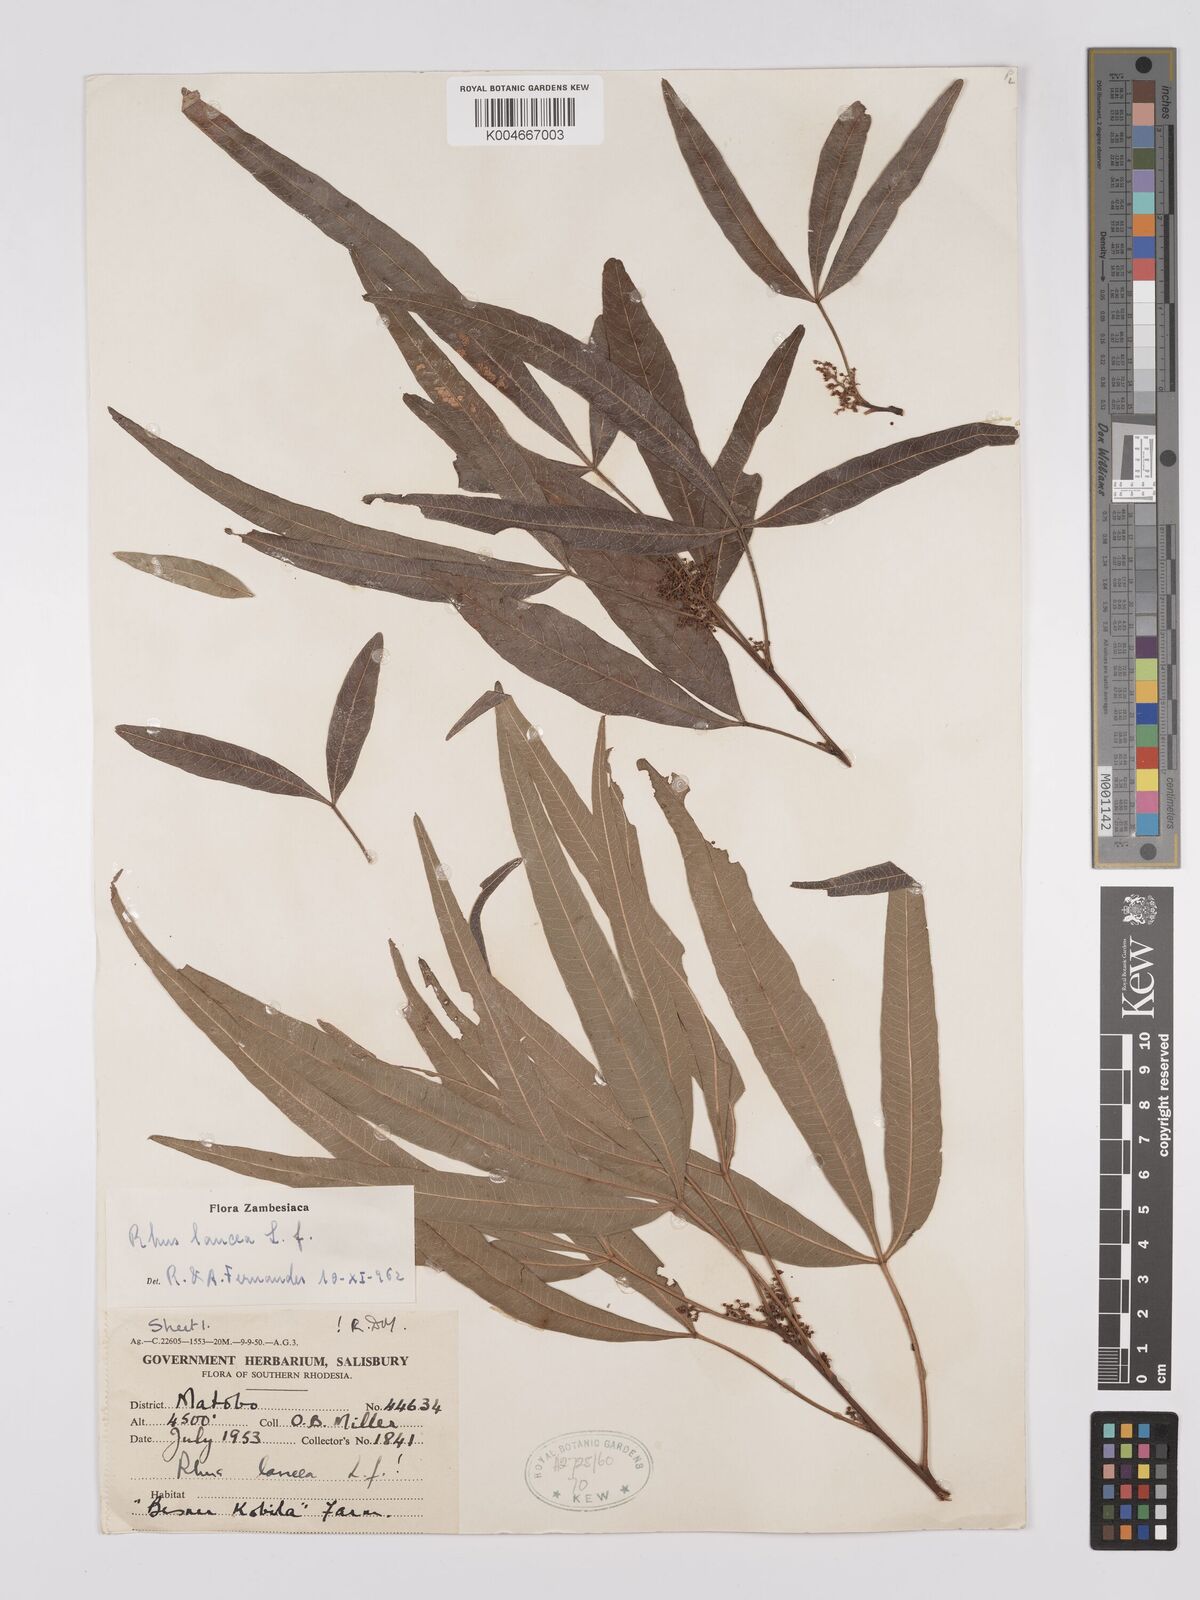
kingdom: Plantae
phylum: Tracheophyta
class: Magnoliopsida
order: Sapindales
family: Anacardiaceae
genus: Searsia
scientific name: Searsia lancea
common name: Cashew
